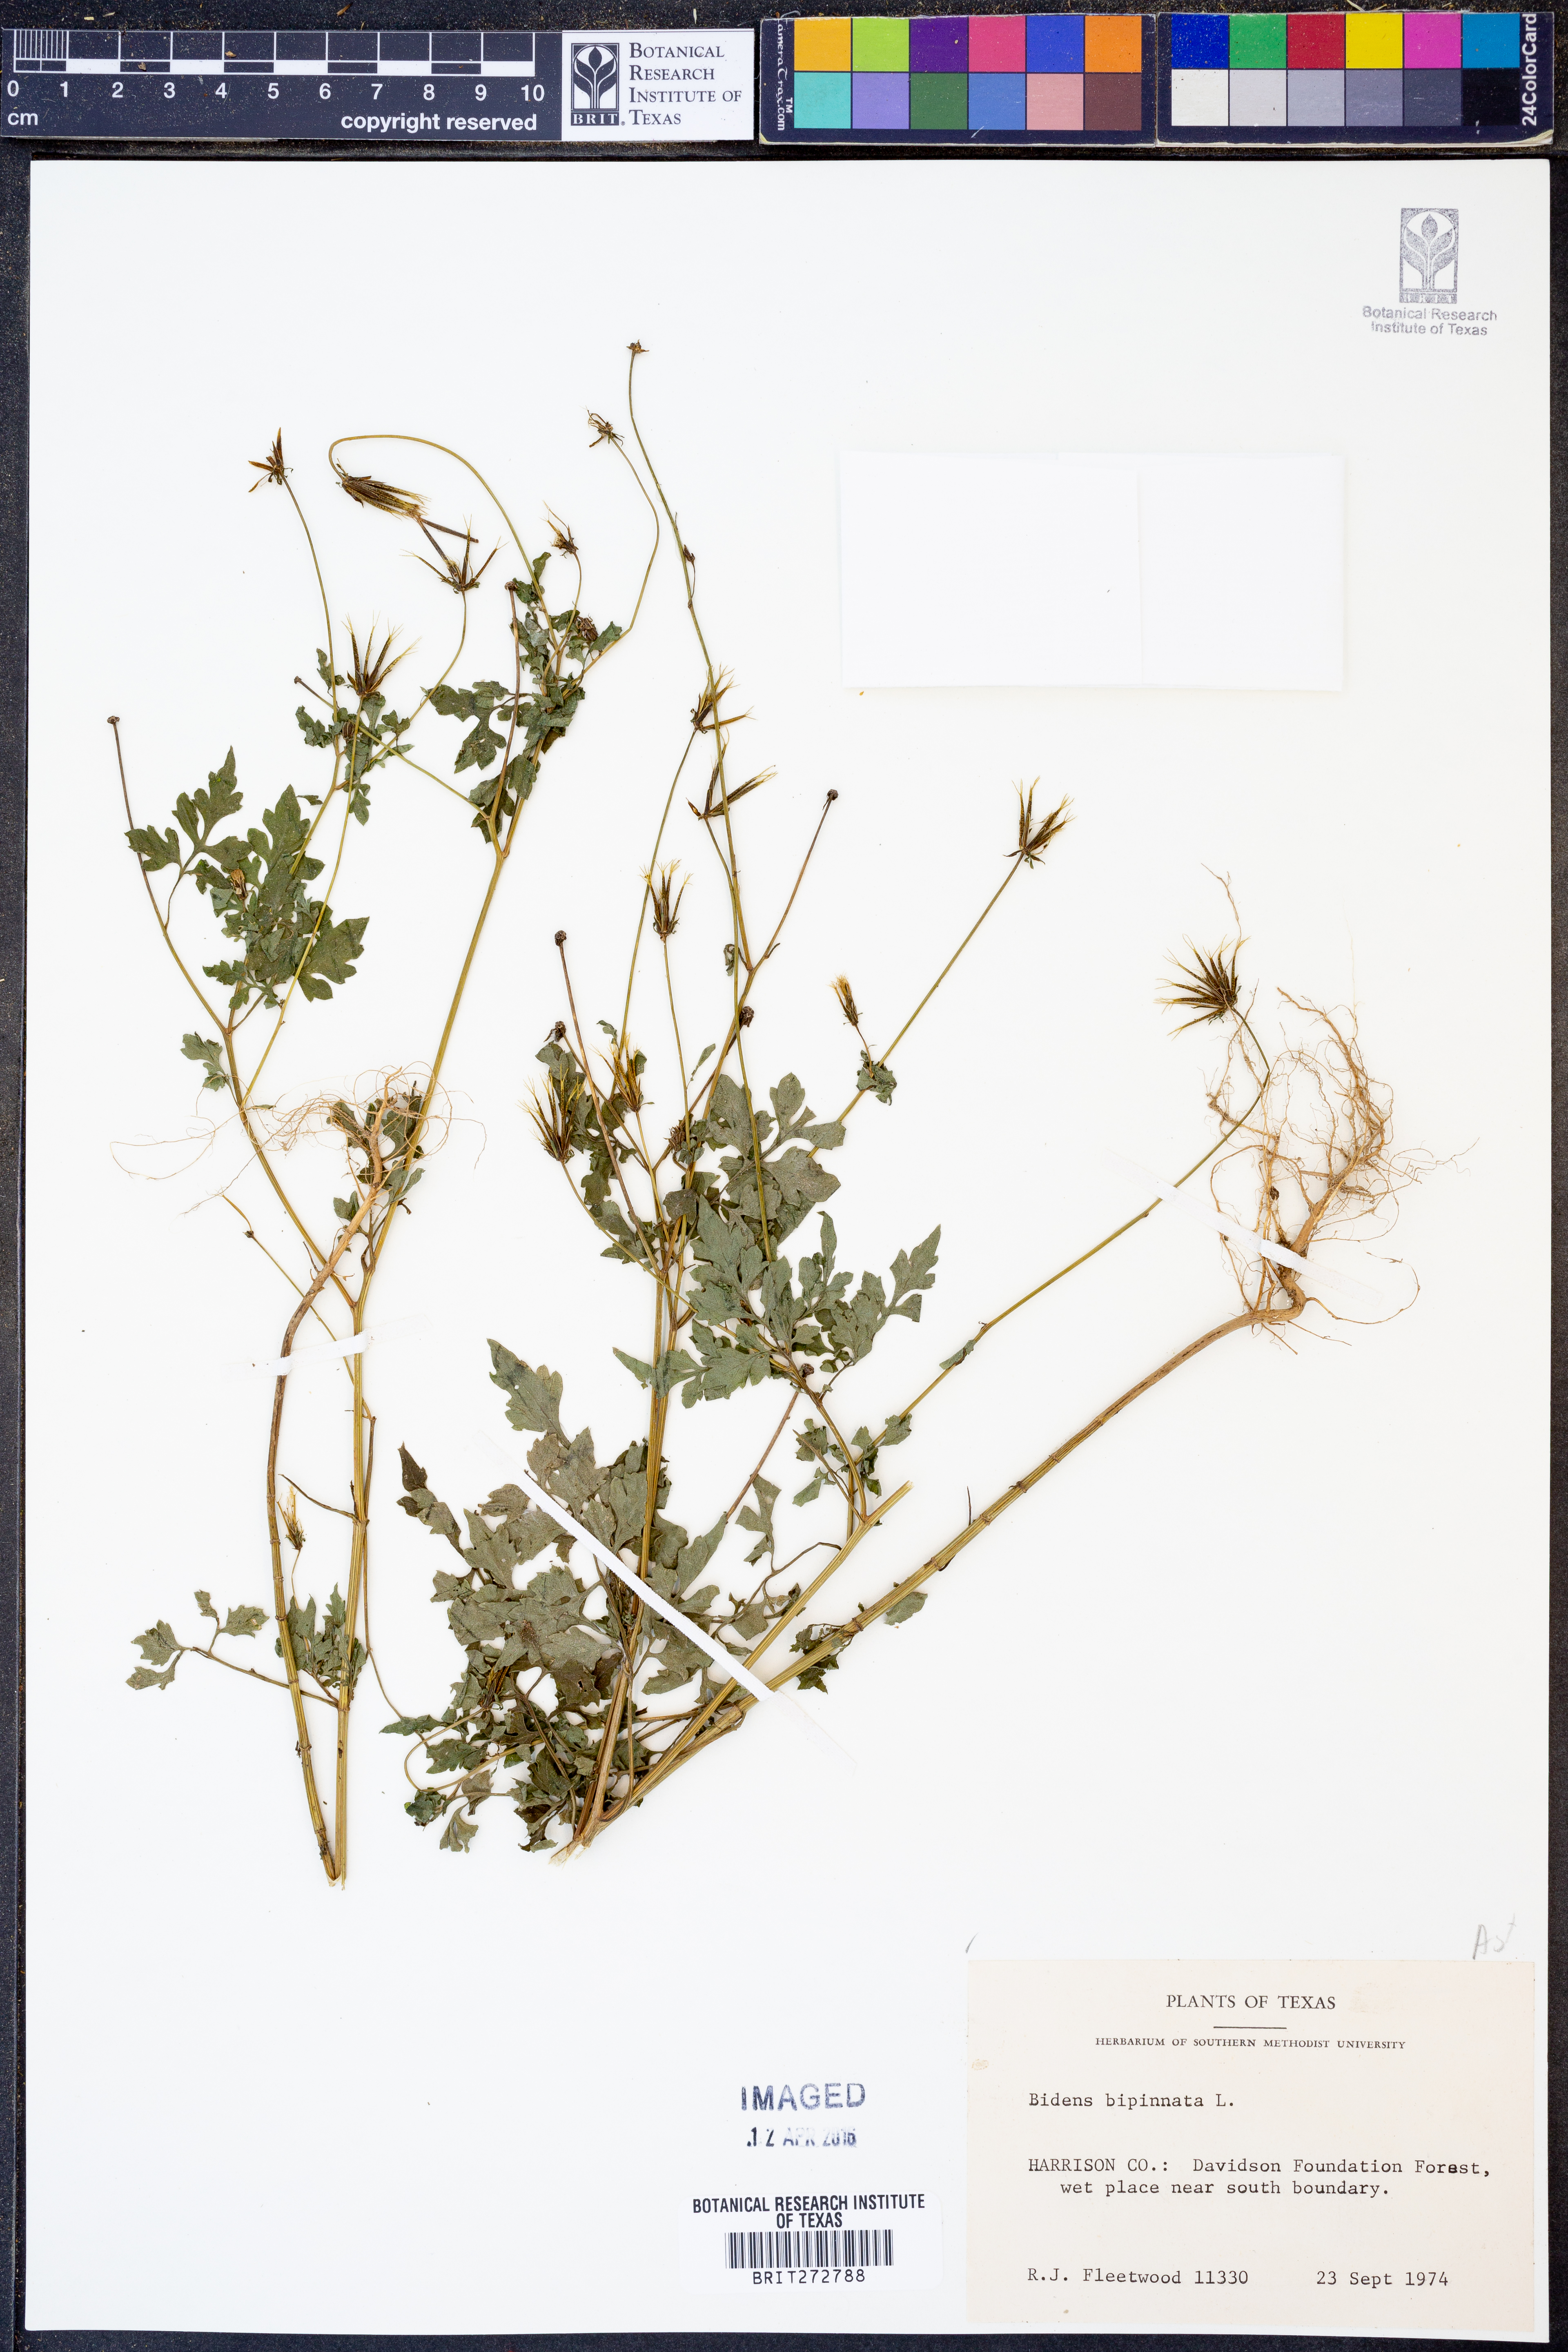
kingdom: Plantae
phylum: Tracheophyta
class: Magnoliopsida
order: Asterales
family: Asteraceae
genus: Bidens
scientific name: Bidens bipinnata
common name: Spanish-needles
